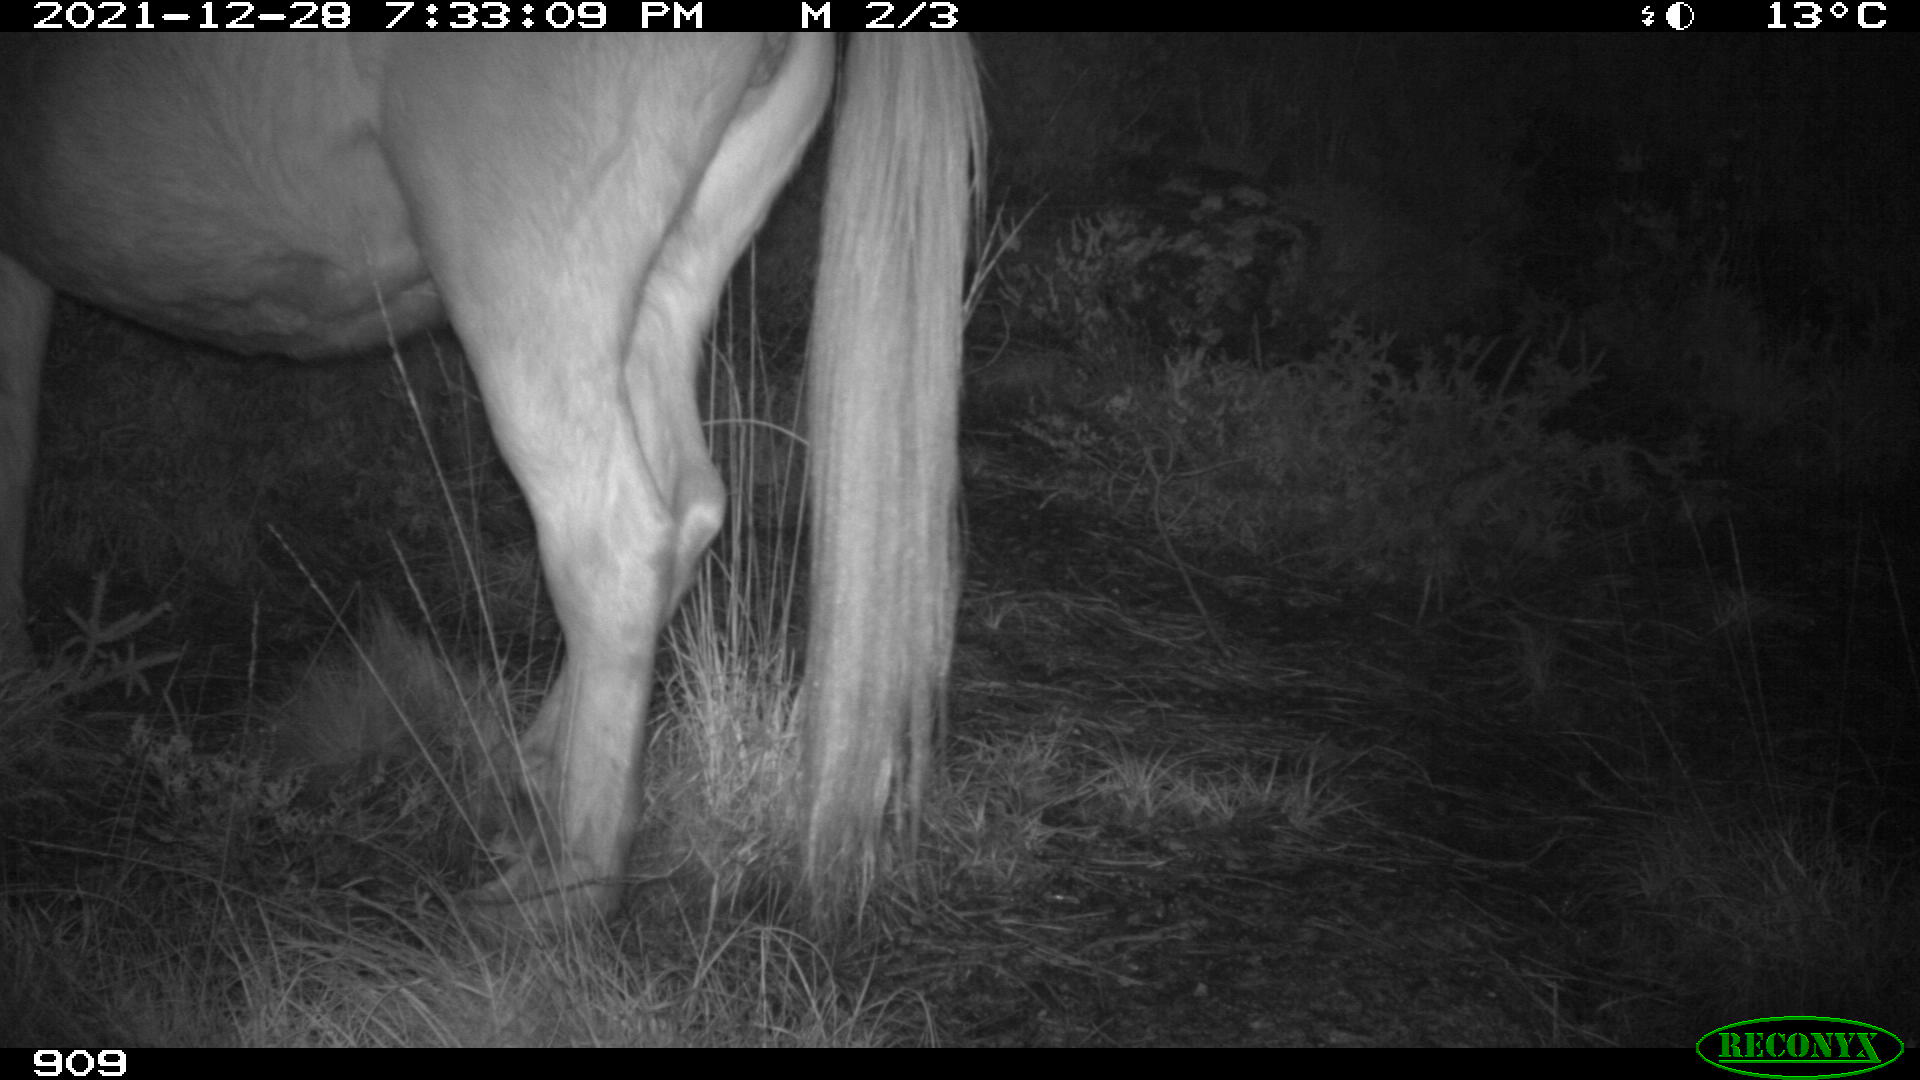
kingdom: Animalia
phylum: Chordata
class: Mammalia
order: Perissodactyla
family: Equidae
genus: Equus
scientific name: Equus caballus
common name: Horse
